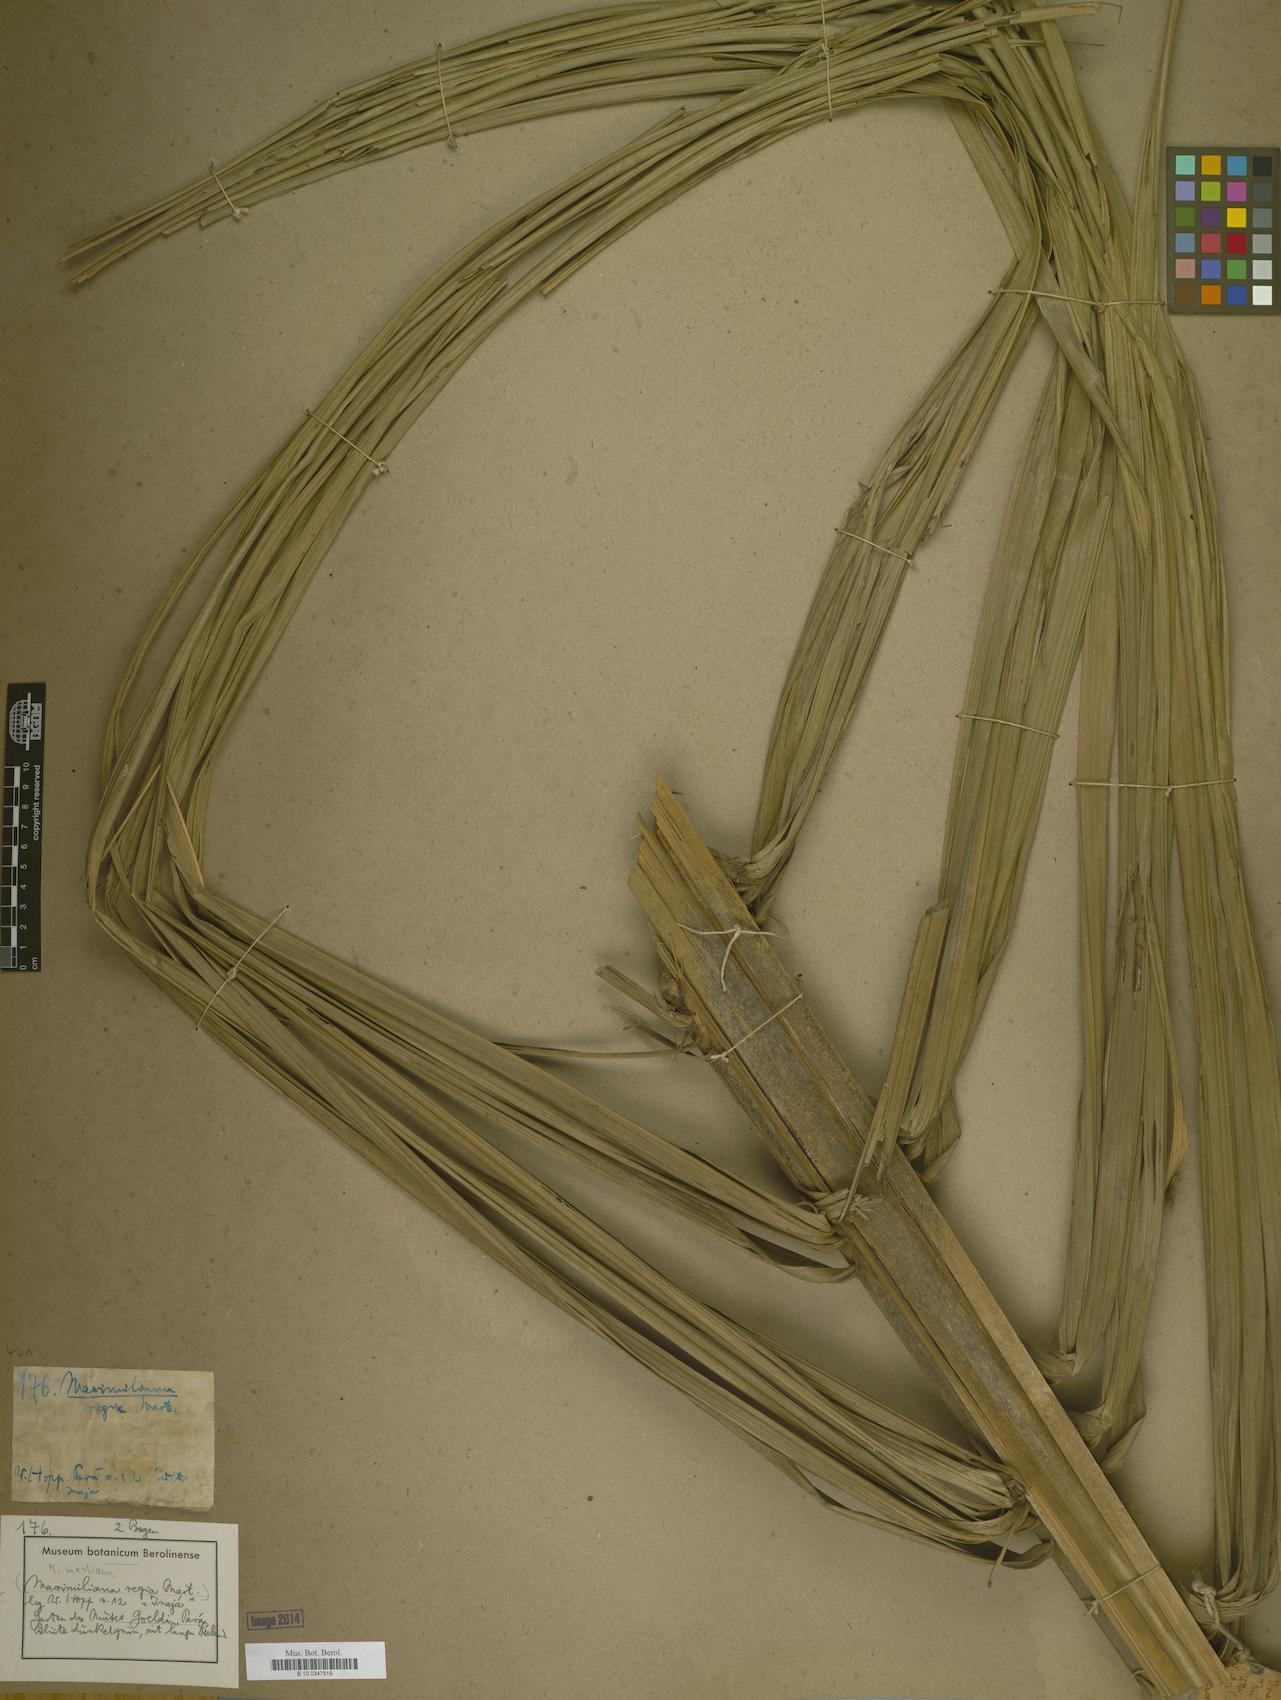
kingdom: Plantae
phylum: Tracheophyta
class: Liliopsida
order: Arecales
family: Arecaceae
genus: Attalea
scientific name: Attalea maripa
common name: Maripa palm
